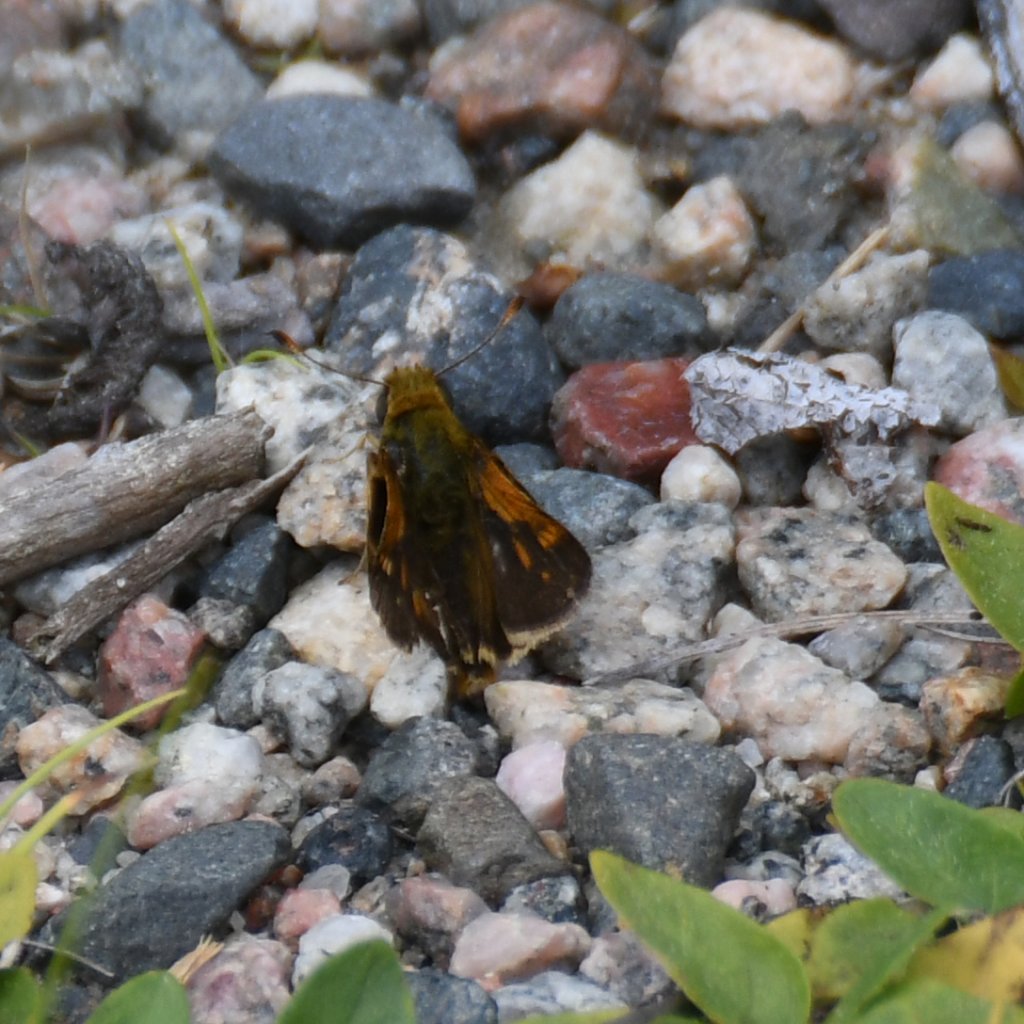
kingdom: Animalia
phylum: Arthropoda
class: Insecta
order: Lepidoptera
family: Hesperiidae
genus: Polites
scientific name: Polites themistocles
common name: Tawny-edged Skipper
